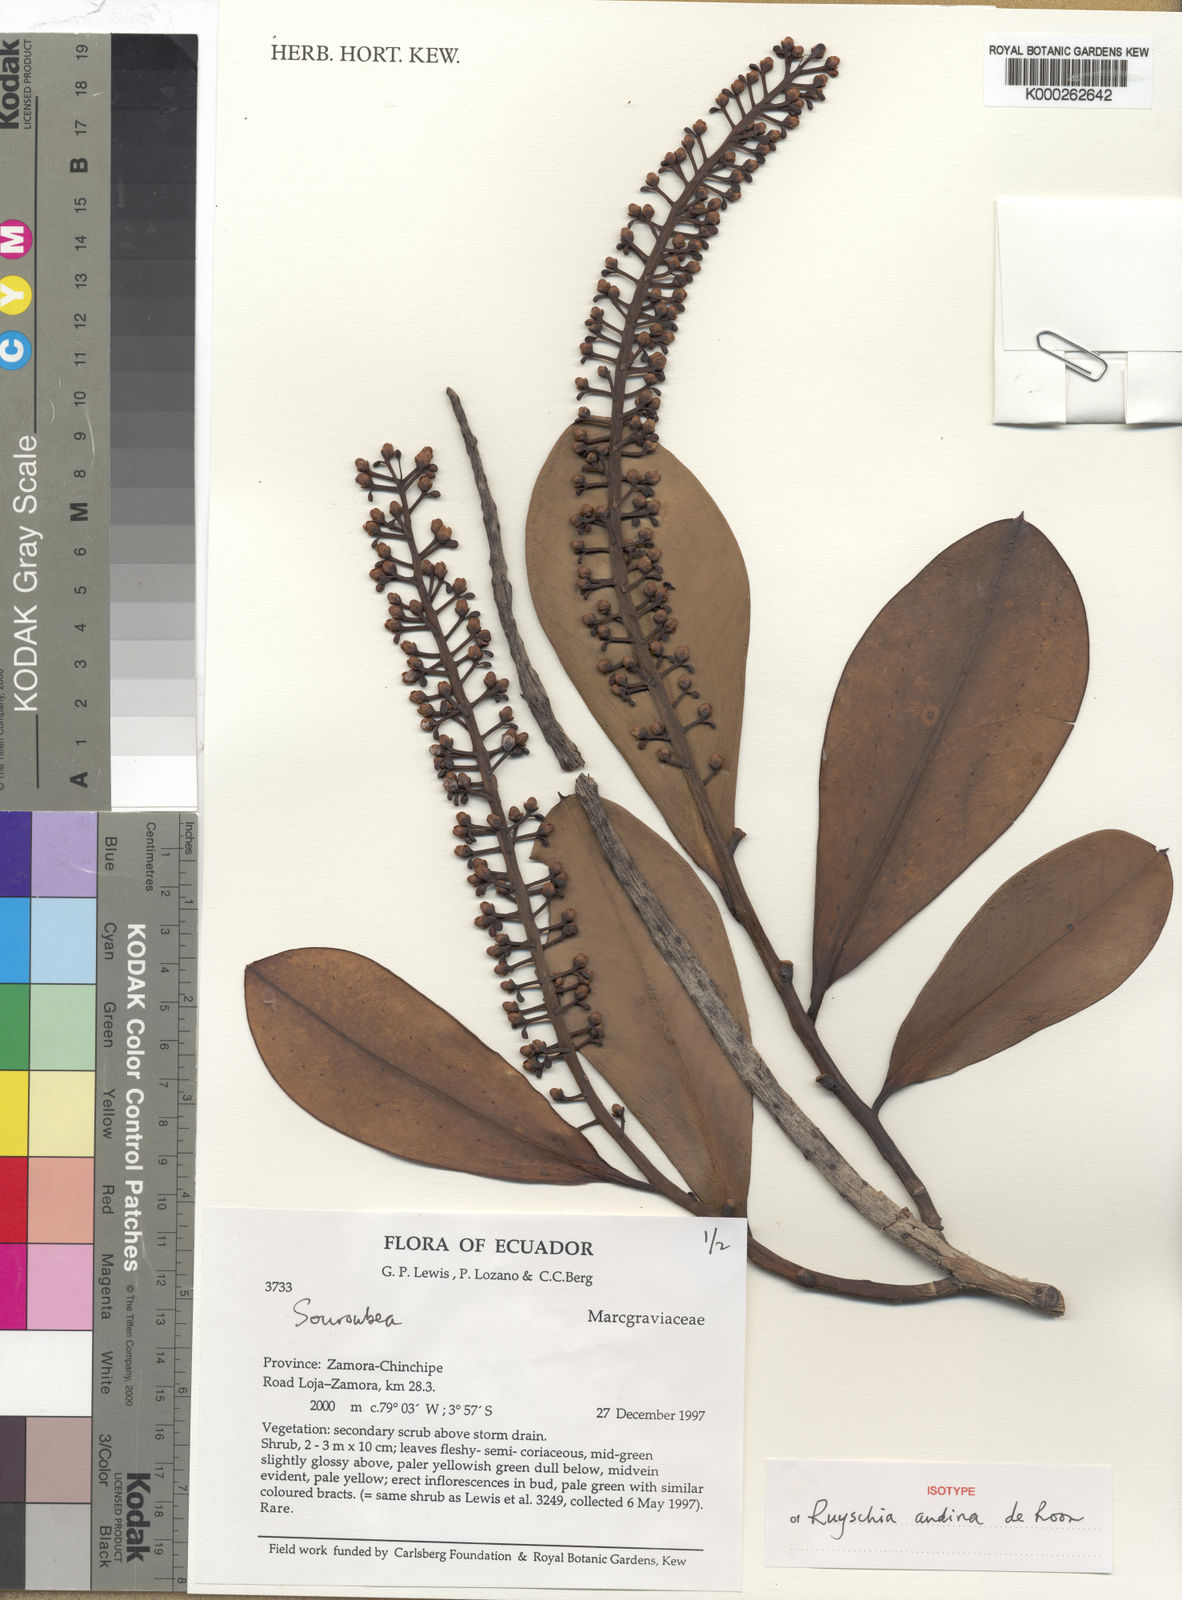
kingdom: Plantae
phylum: Tracheophyta
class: Magnoliopsida
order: Ericales
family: Marcgraviaceae
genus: Ruyschia
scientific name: Ruyschia andina
